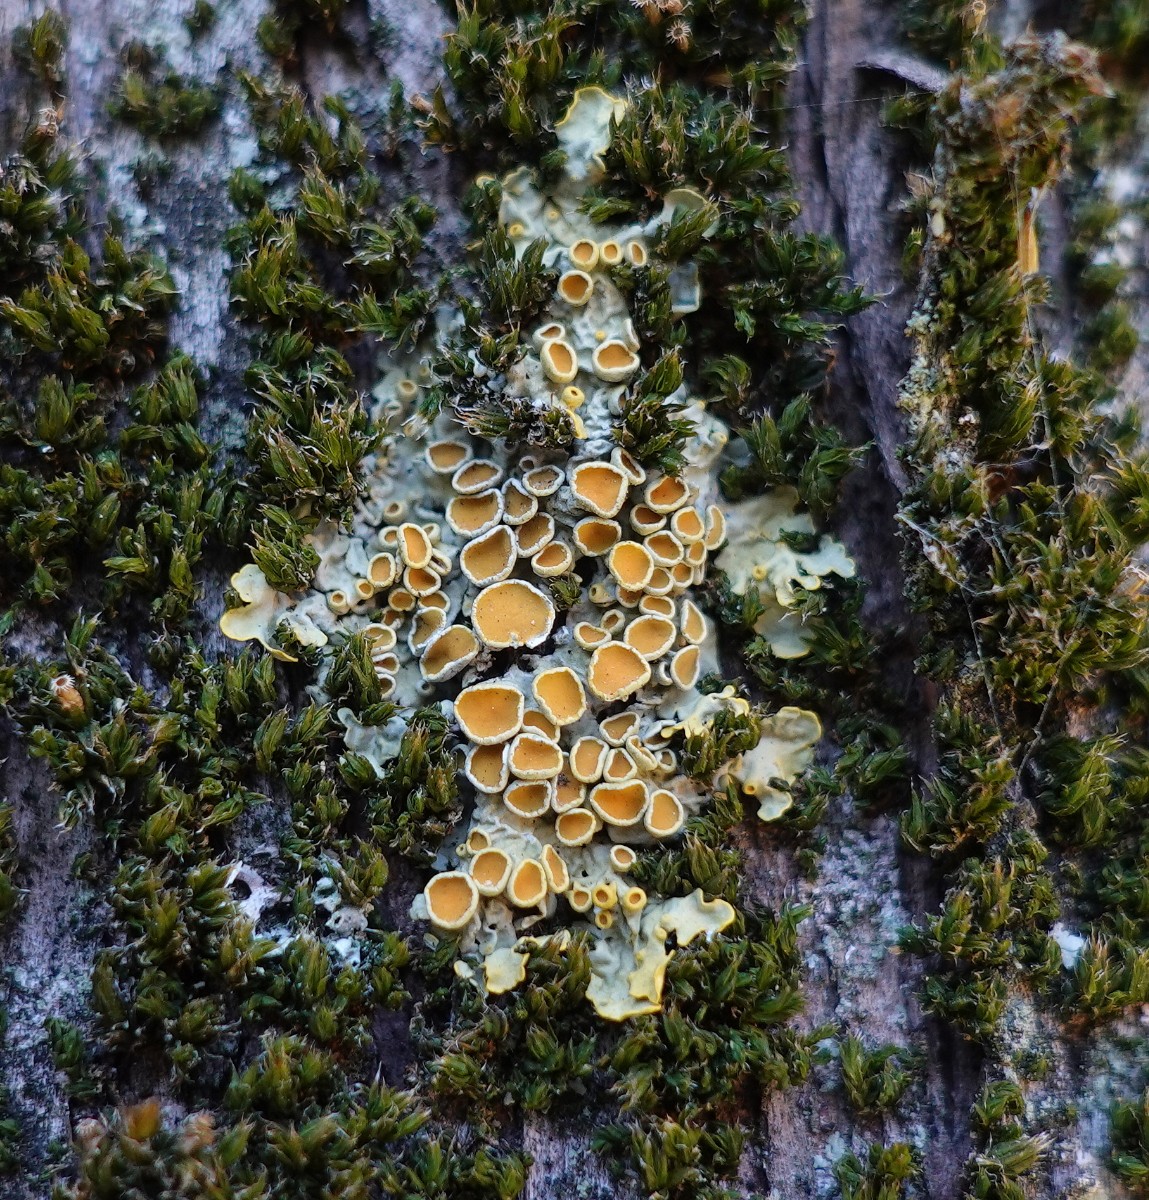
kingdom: Fungi
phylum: Ascomycota
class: Lecanoromycetes
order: Teloschistales
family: Teloschistaceae
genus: Xanthoria
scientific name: Xanthoria parietina
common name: almindelig væggelav
